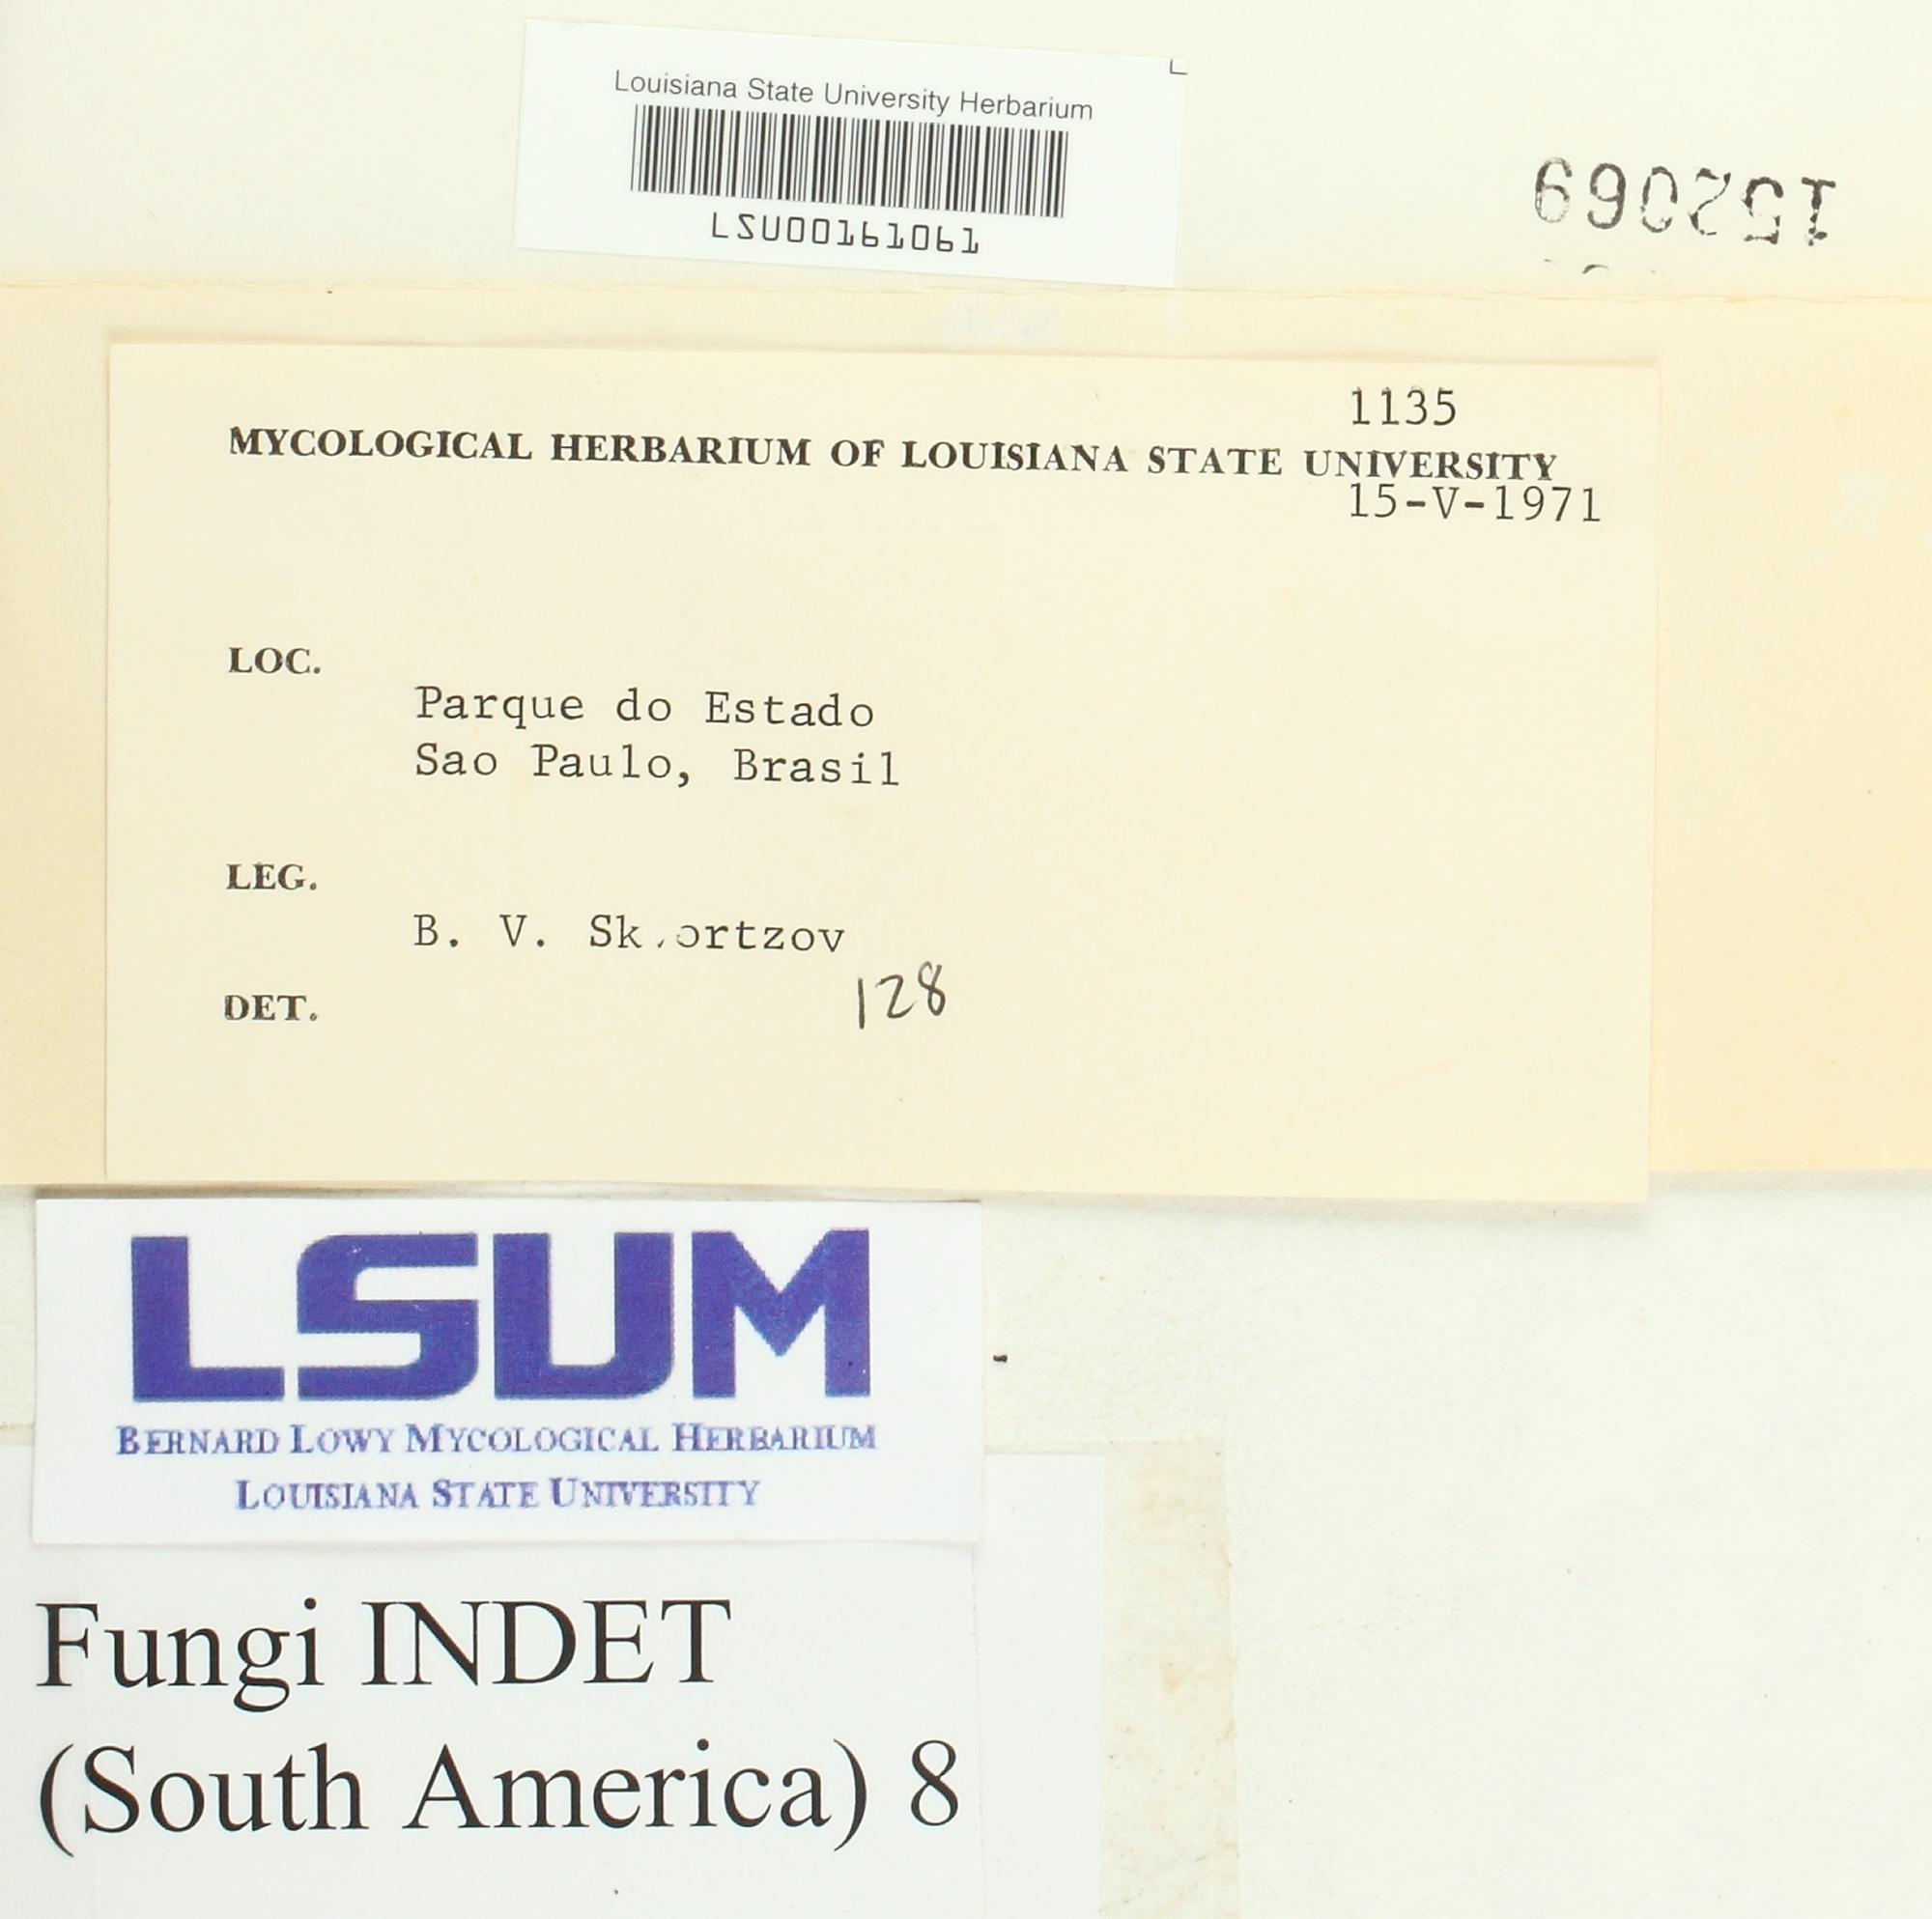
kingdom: Fungi
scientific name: Fungi
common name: Fungi
